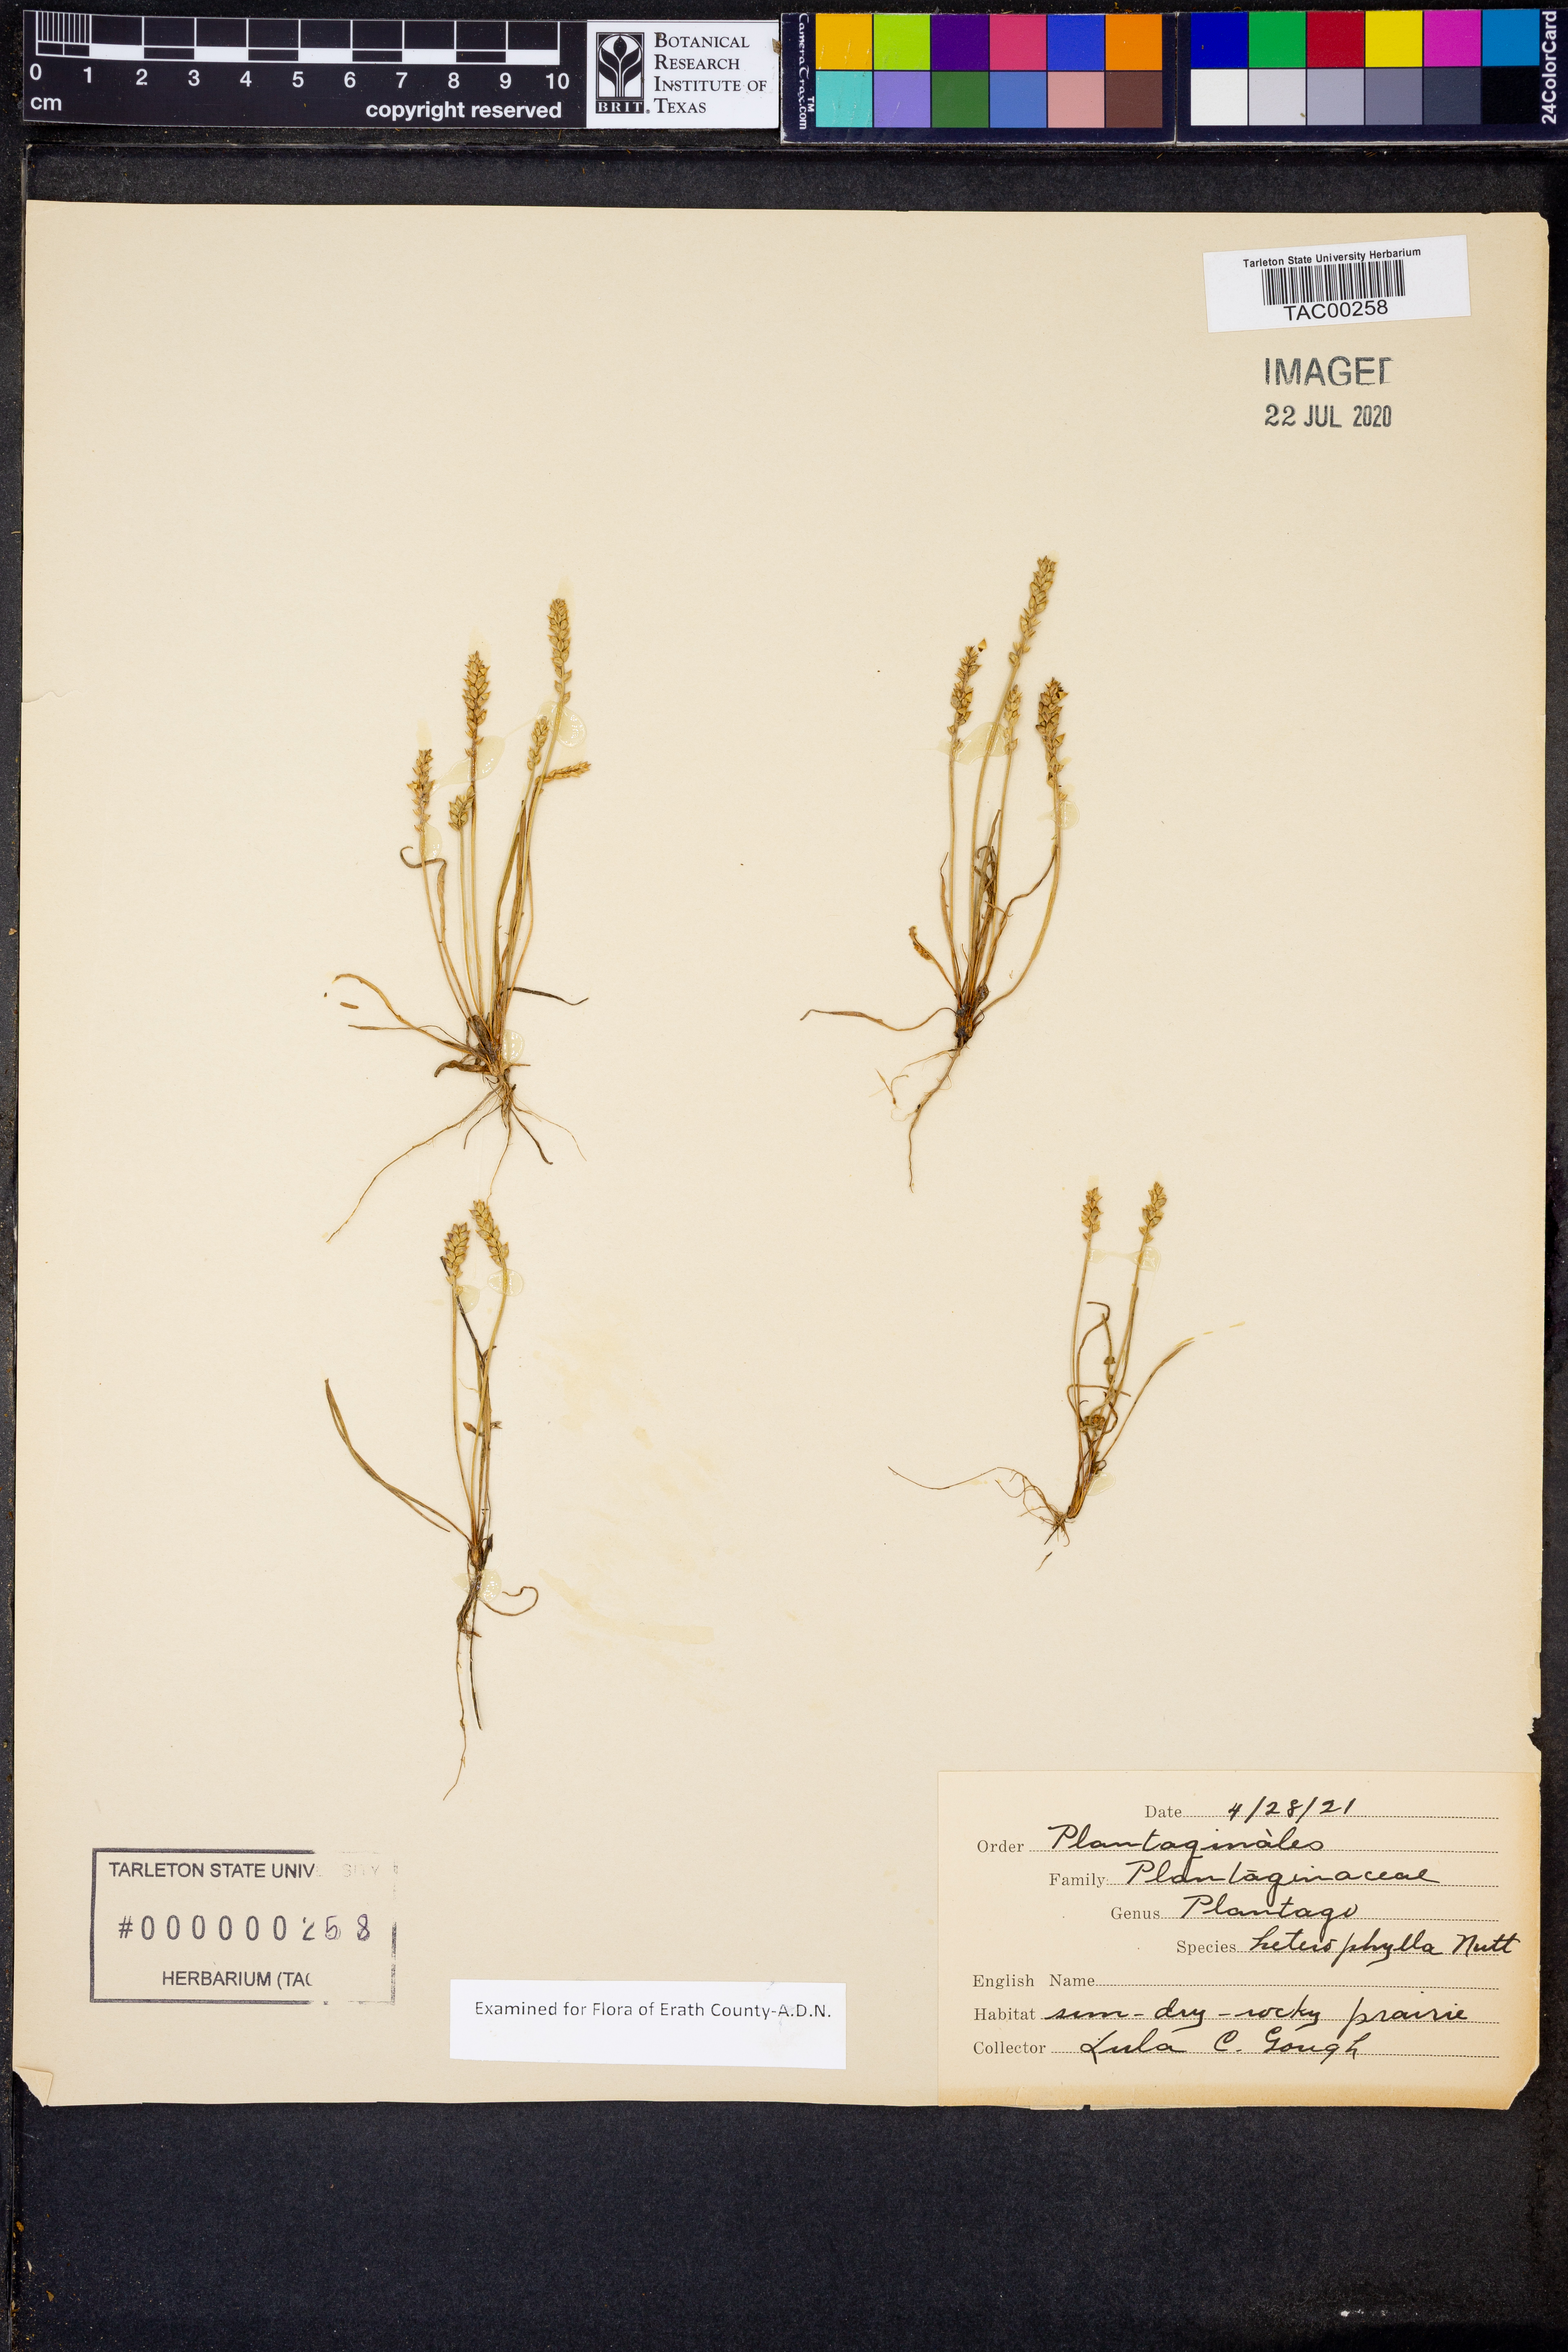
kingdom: Plantae
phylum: Tracheophyta
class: Magnoliopsida
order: Lamiales
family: Plantaginaceae
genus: Plantago
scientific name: Plantago heterophylla
